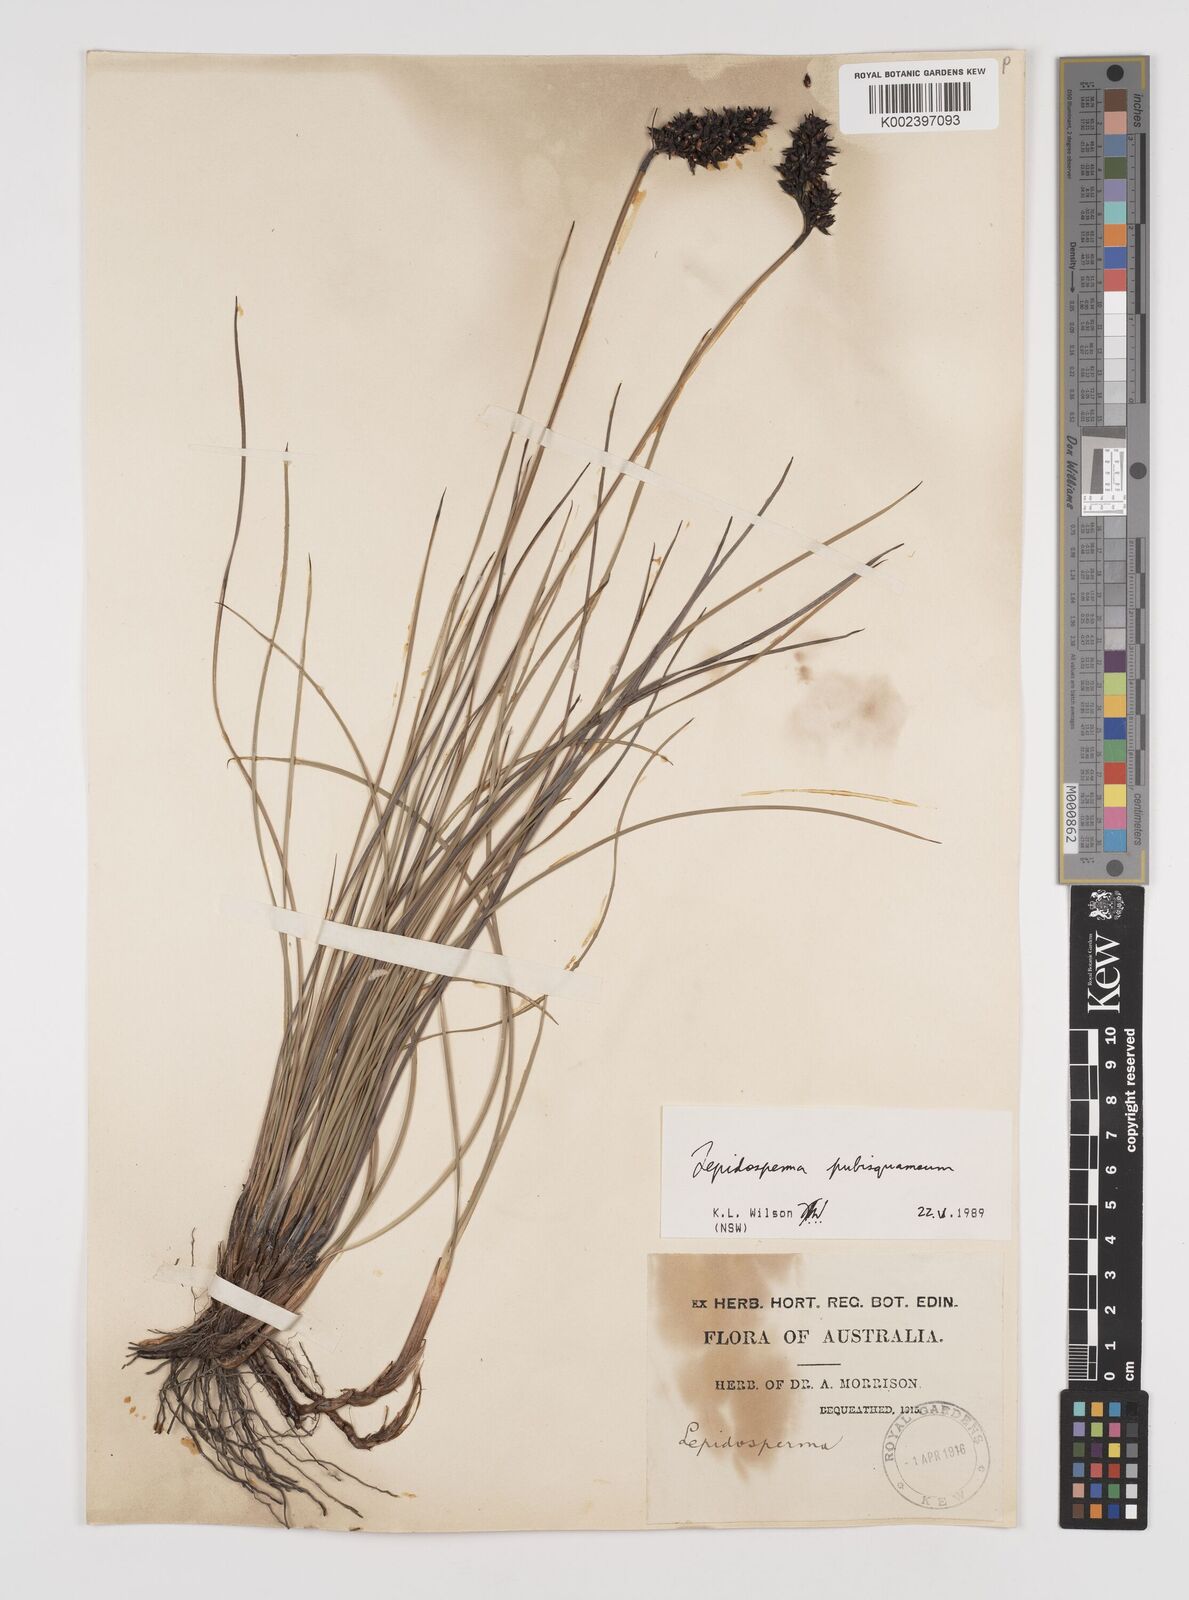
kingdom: Plantae
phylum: Tracheophyta
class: Liliopsida
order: Poales
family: Cyperaceae
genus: Lepidosperma
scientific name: Lepidosperma pubisquameum
